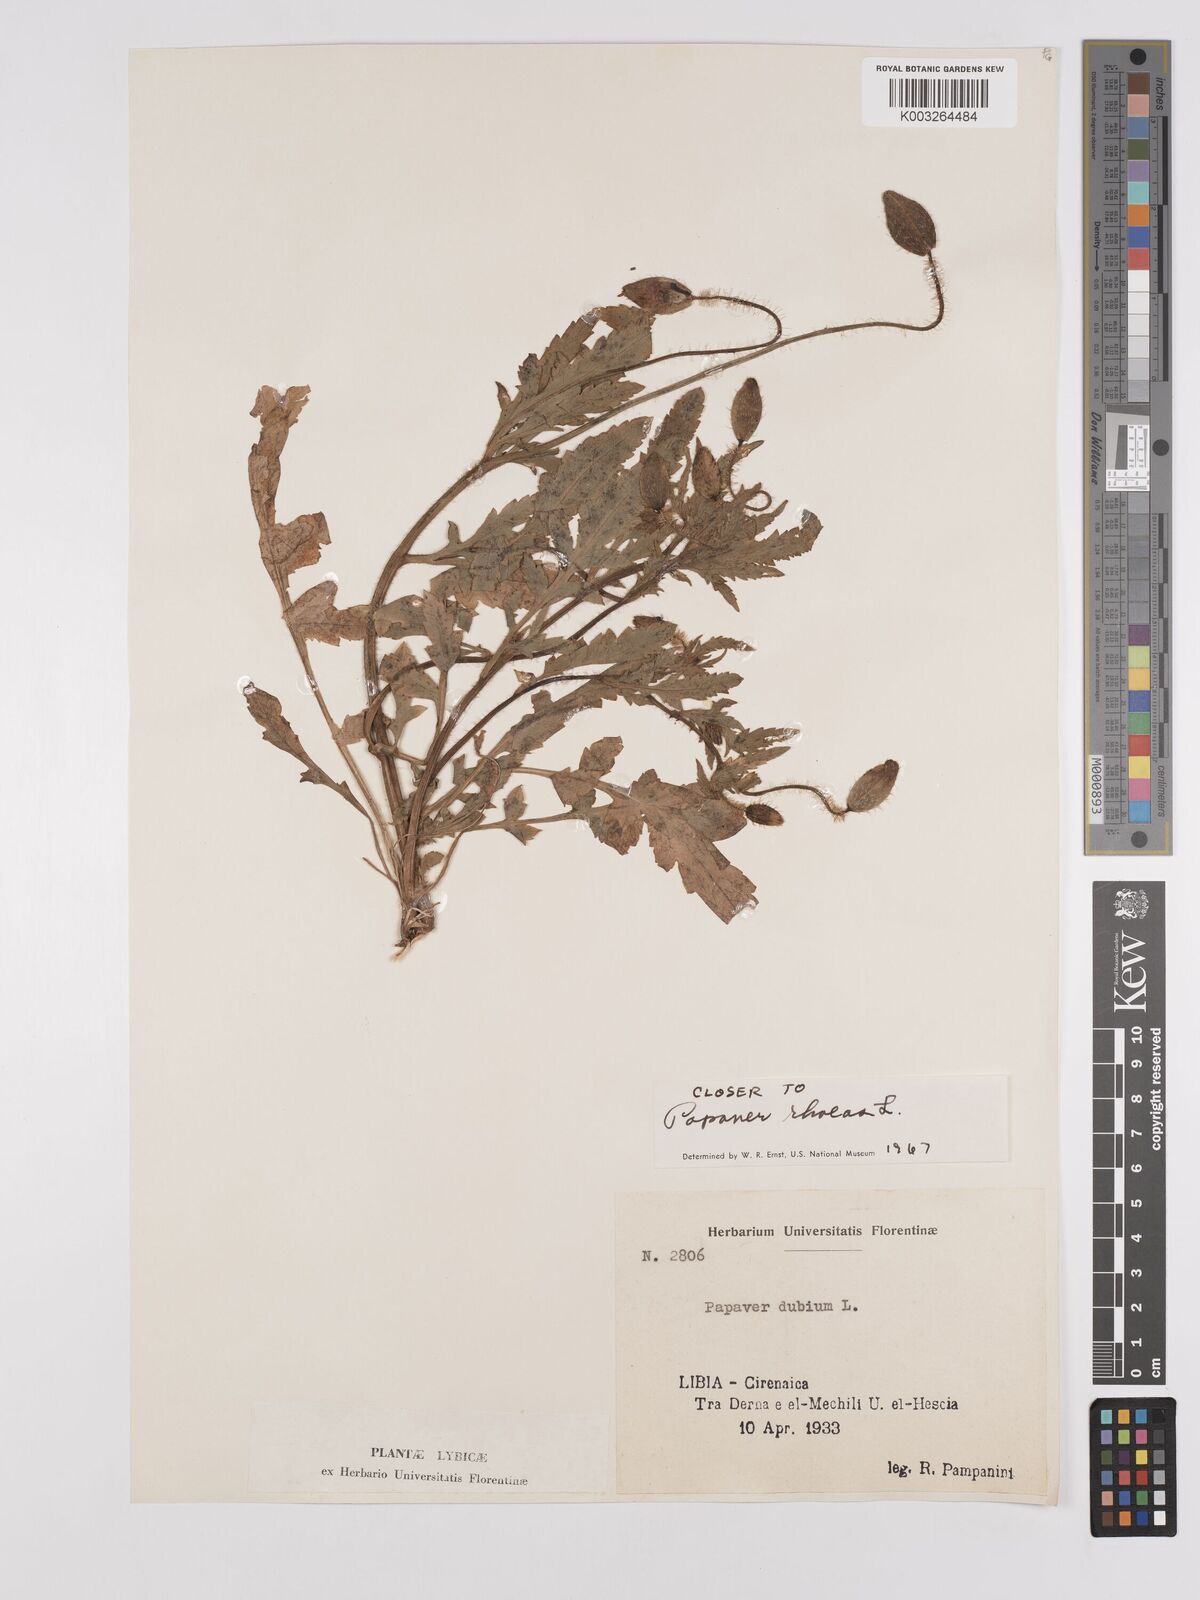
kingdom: Plantae
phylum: Tracheophyta
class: Magnoliopsida
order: Ranunculales
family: Papaveraceae
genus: Papaver
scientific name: Papaver rhoeas
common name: Corn poppy
